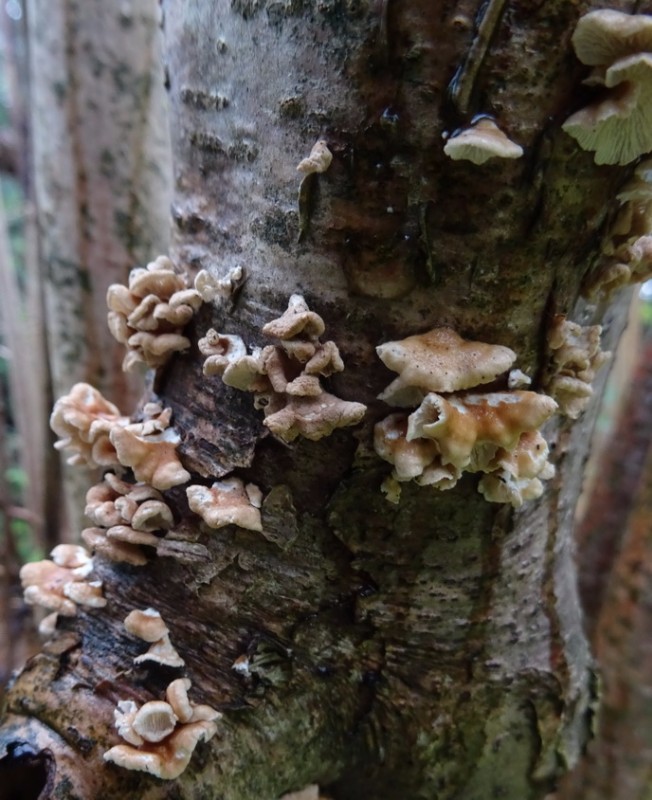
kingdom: Fungi
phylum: Basidiomycota
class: Agaricomycetes
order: Amylocorticiales
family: Amylocorticiaceae
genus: Plicaturopsis
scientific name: Plicaturopsis crispa
